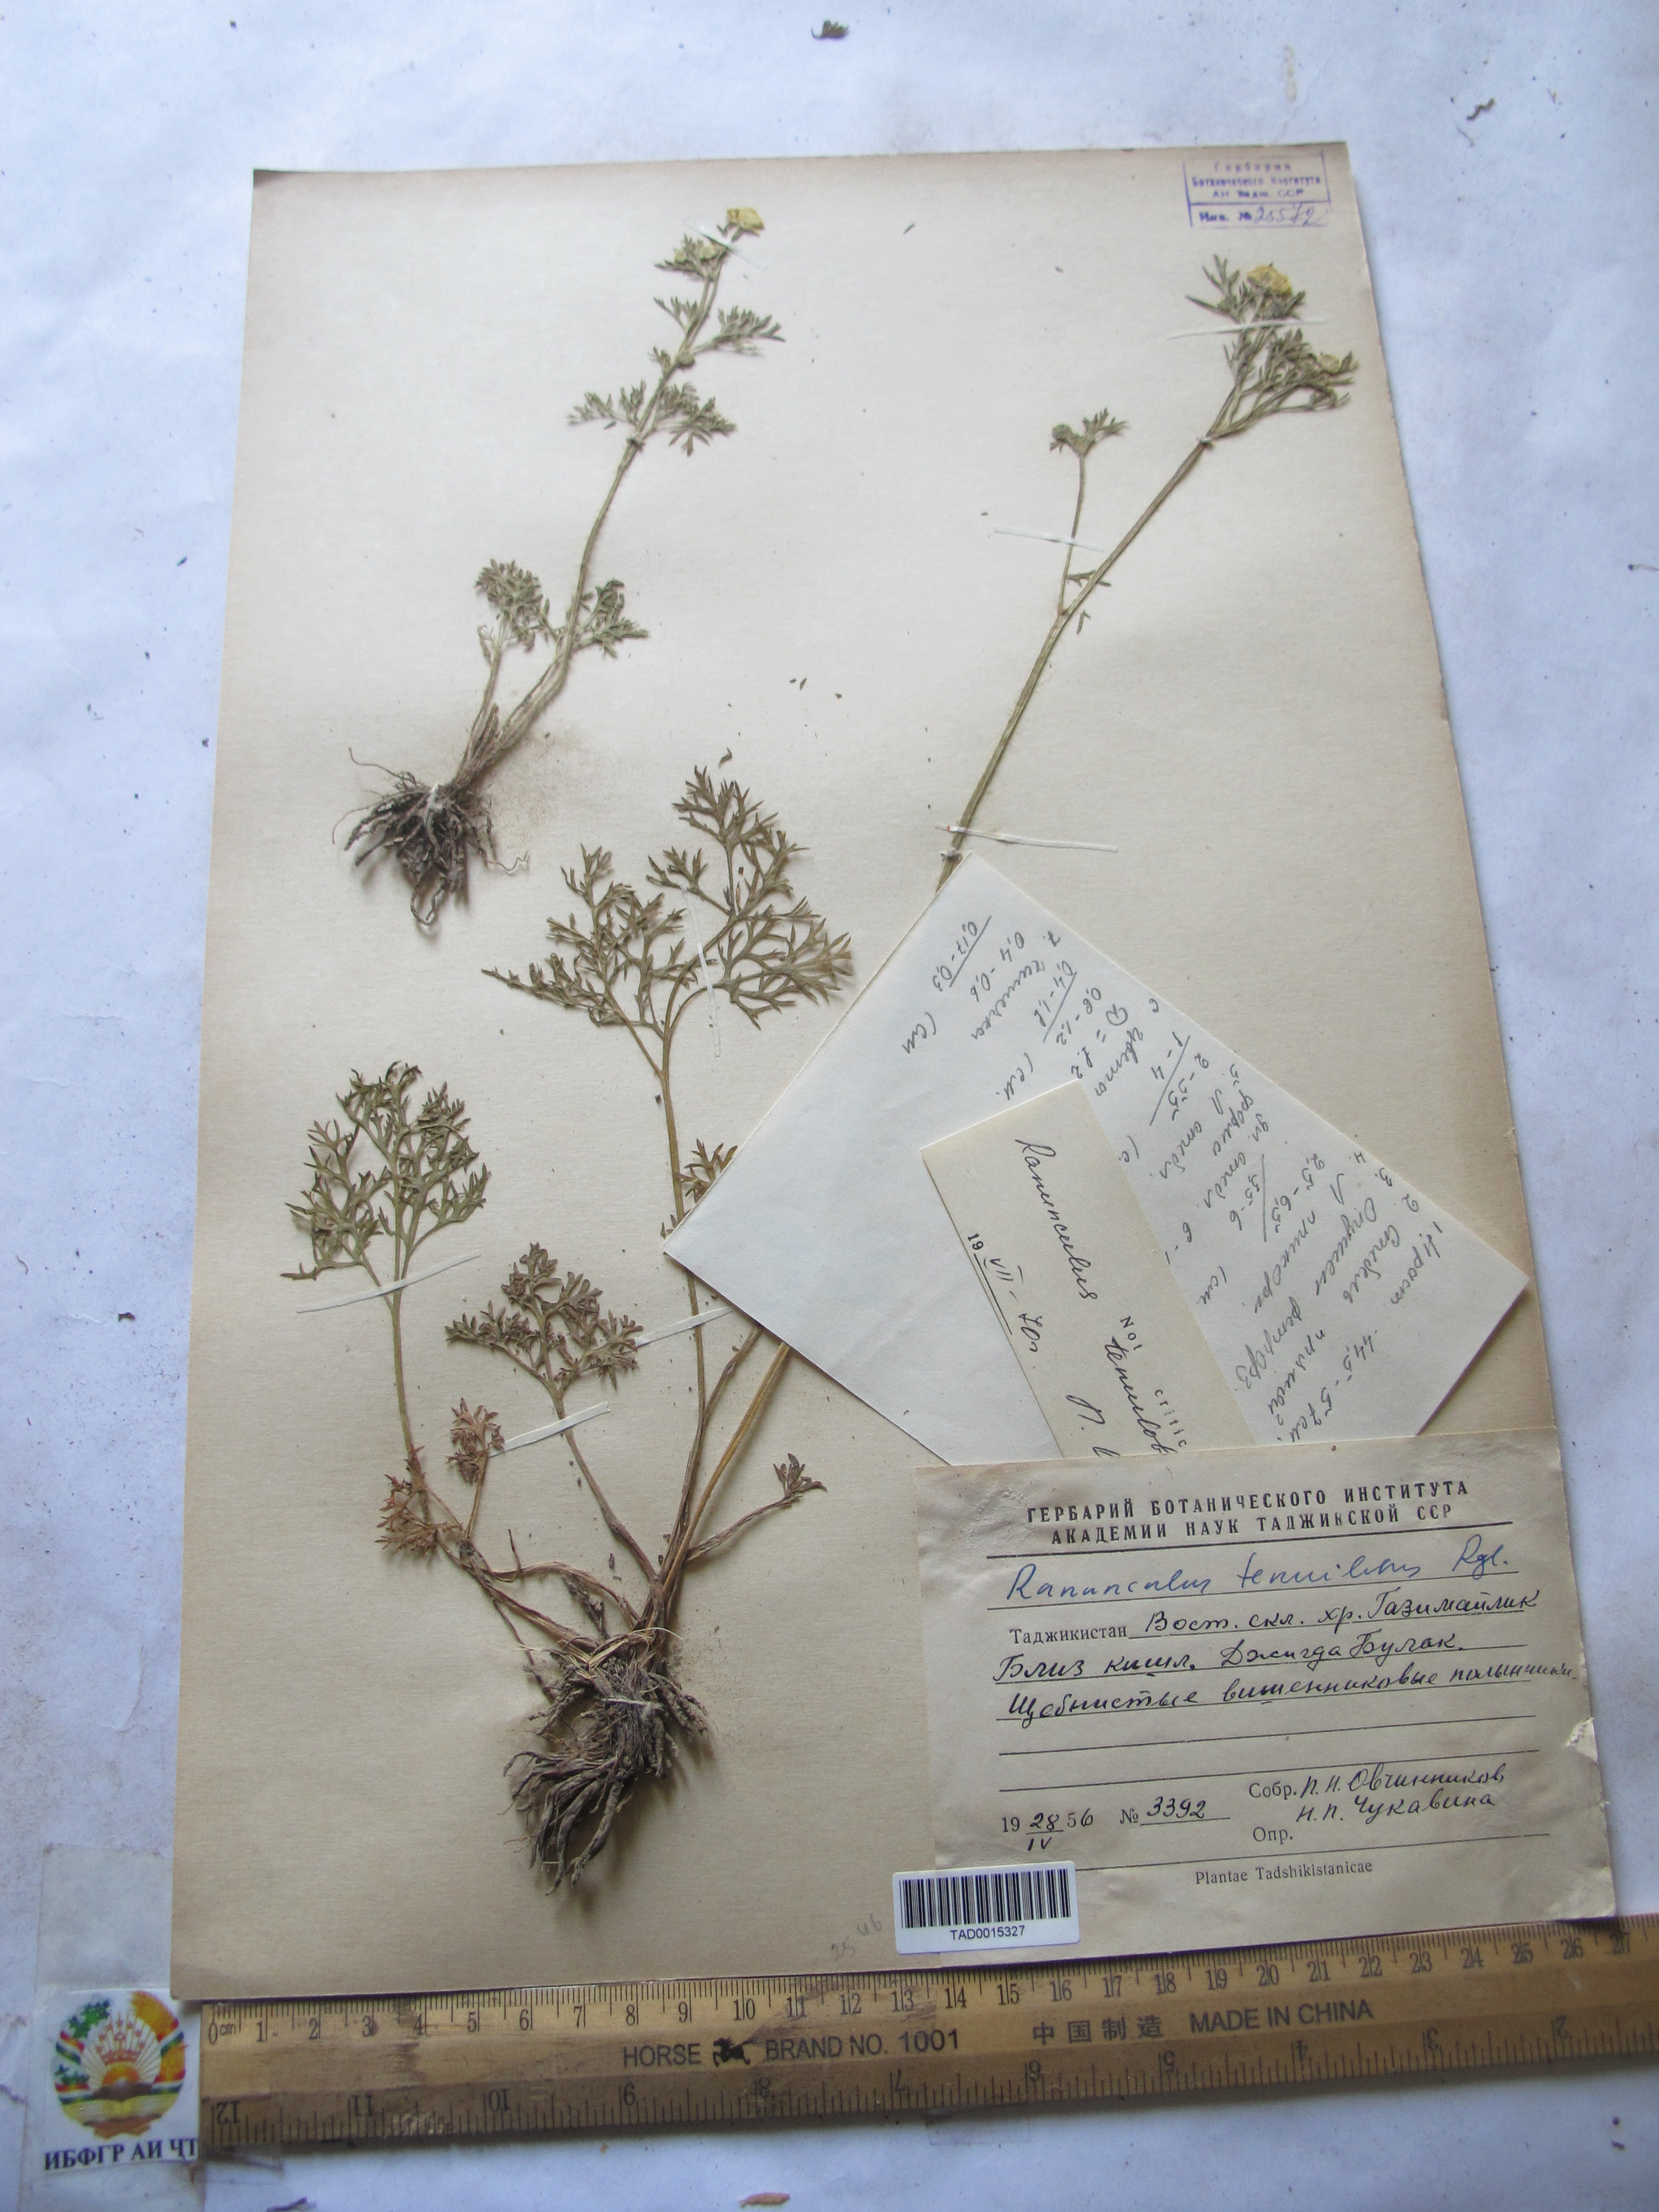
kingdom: Plantae
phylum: Tracheophyta
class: Magnoliopsida
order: Ranunculales
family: Ranunculaceae
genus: Ranunculus
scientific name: Ranunculus tenuilobus
